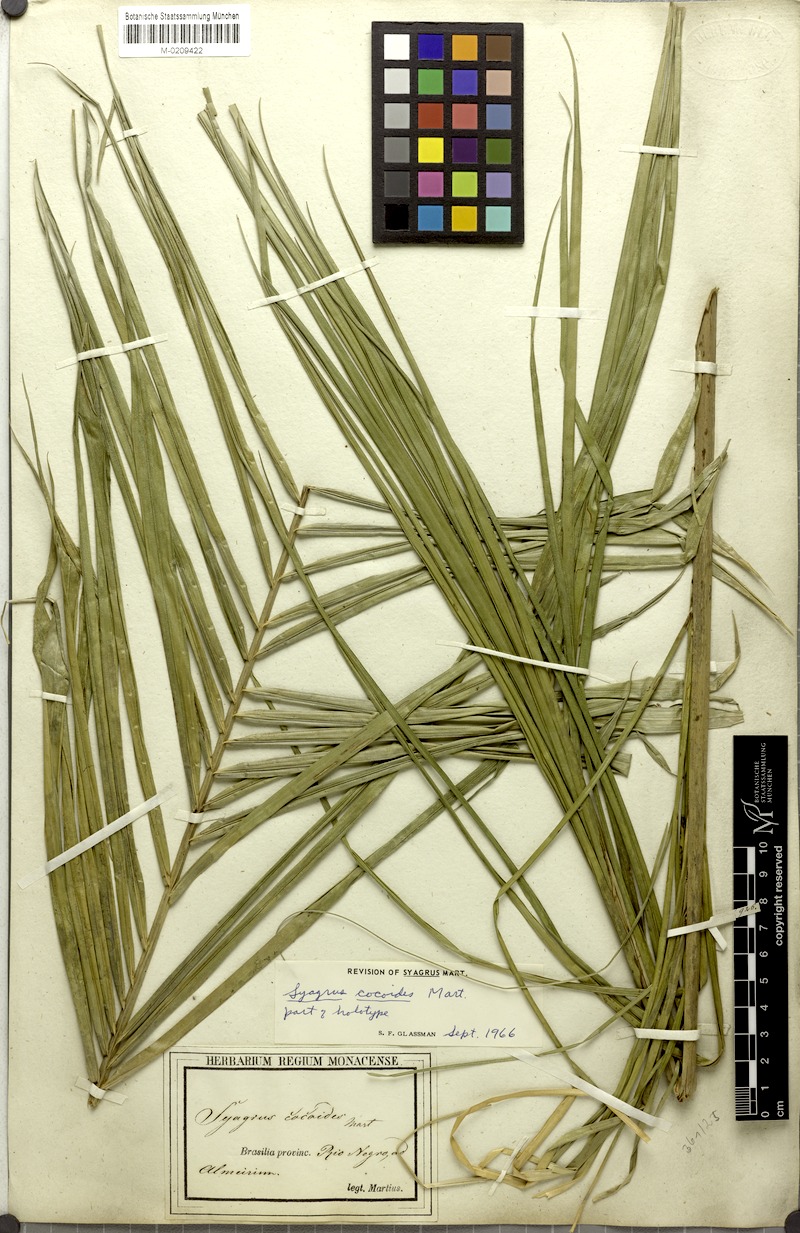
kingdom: Plantae
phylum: Tracheophyta
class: Liliopsida
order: Arecales
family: Arecaceae
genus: Syagrus
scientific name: Syagrus cocoides
